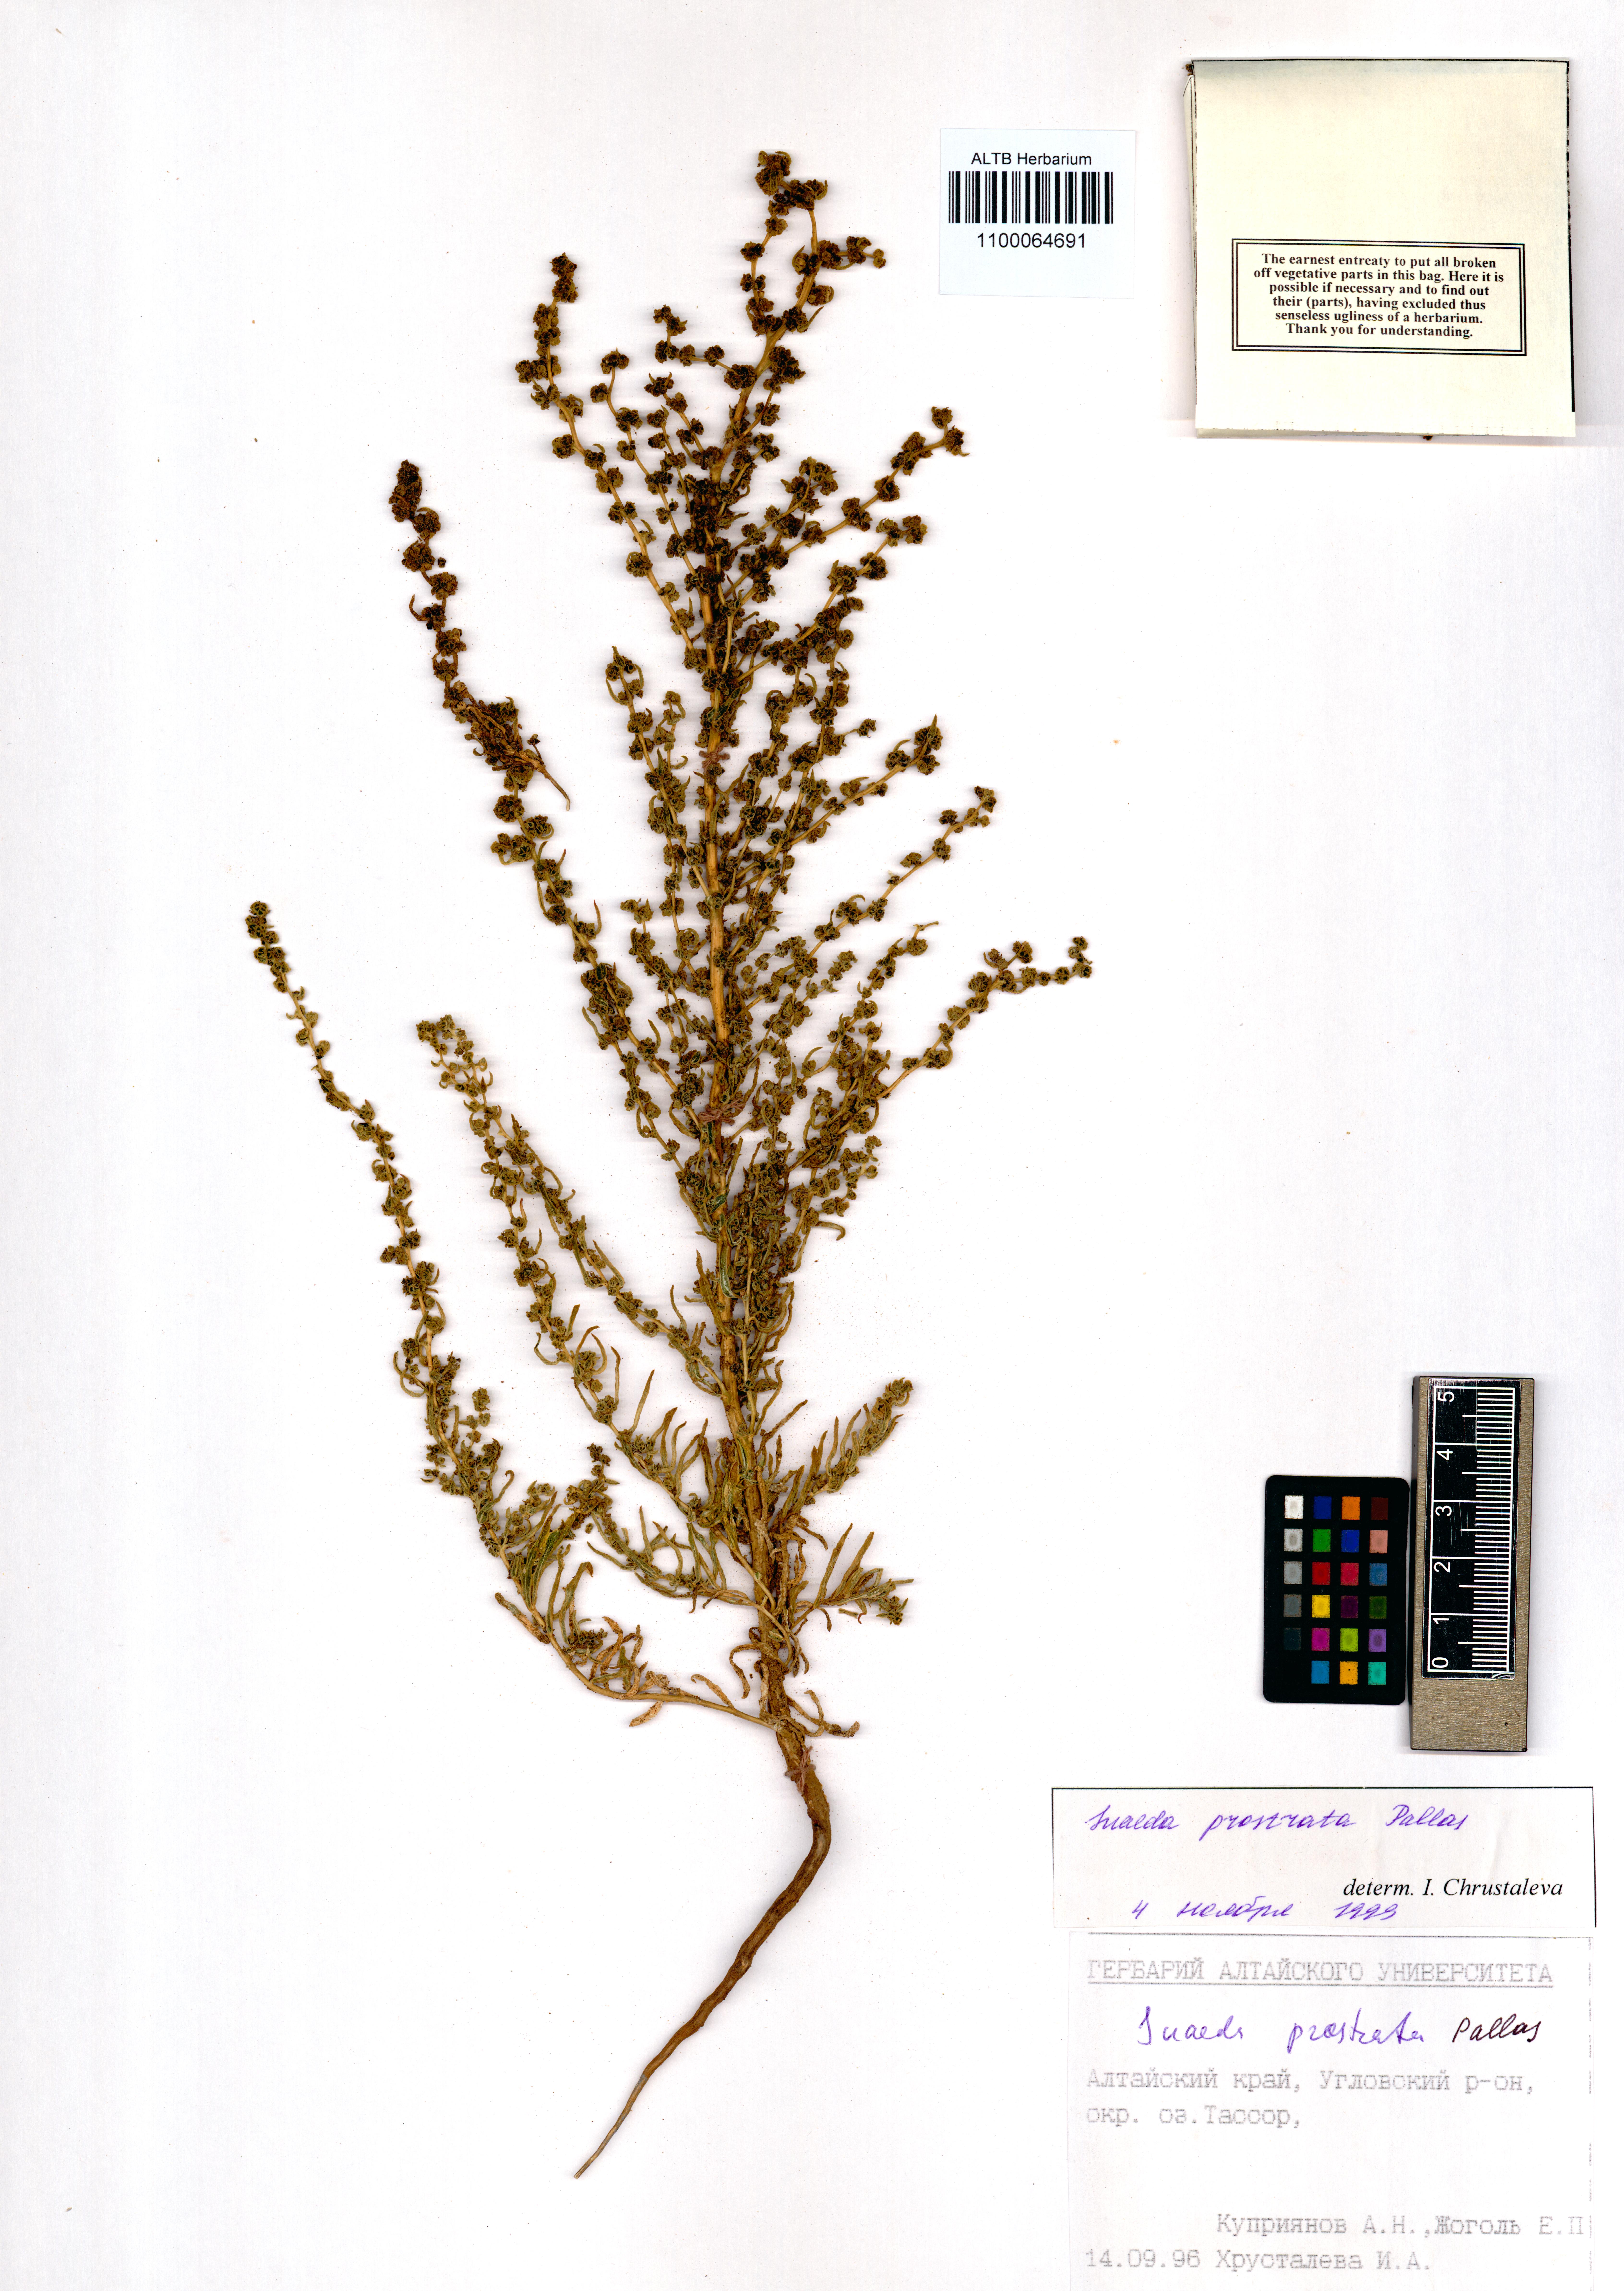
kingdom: Plantae
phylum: Tracheophyta
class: Magnoliopsida
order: Caryophyllales
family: Amaranthaceae
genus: Suaeda
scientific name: Suaeda prostrata
